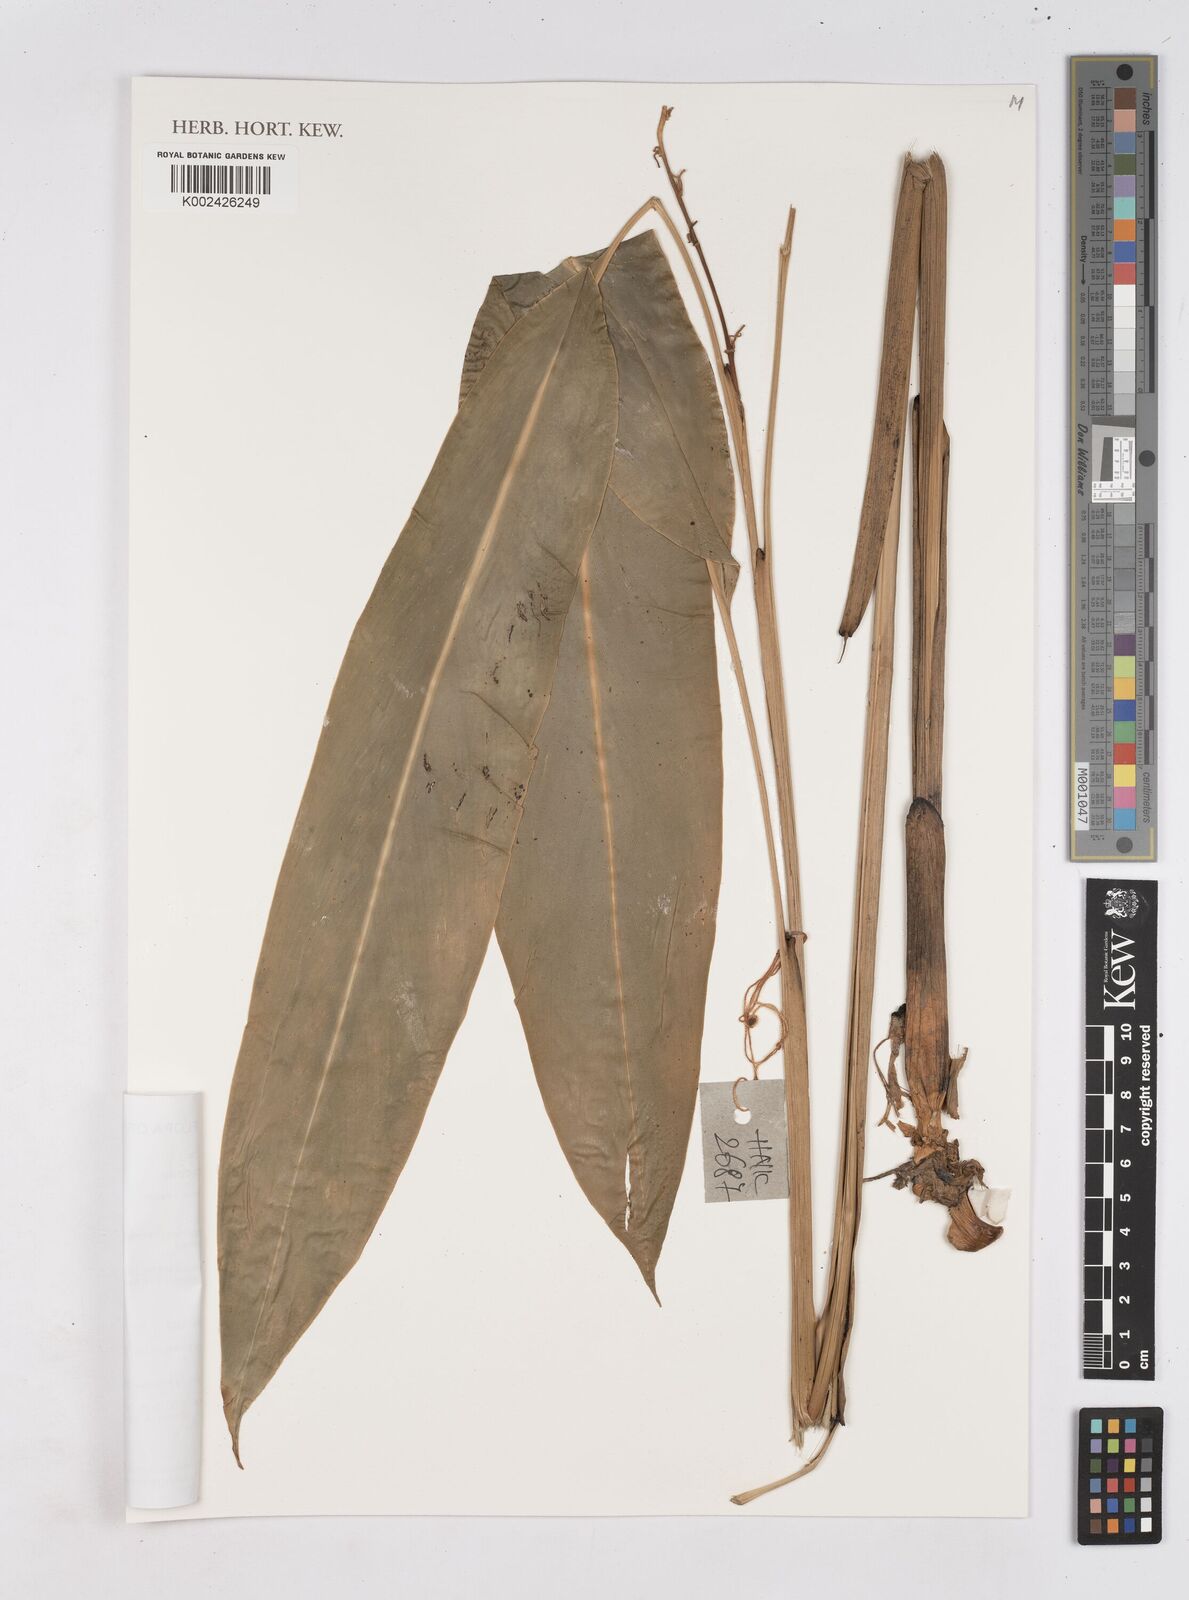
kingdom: Plantae
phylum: Tracheophyta
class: Liliopsida
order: Zingiberales
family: Zingiberaceae
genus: Siliquamomum
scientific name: Siliquamomum tonkinense
